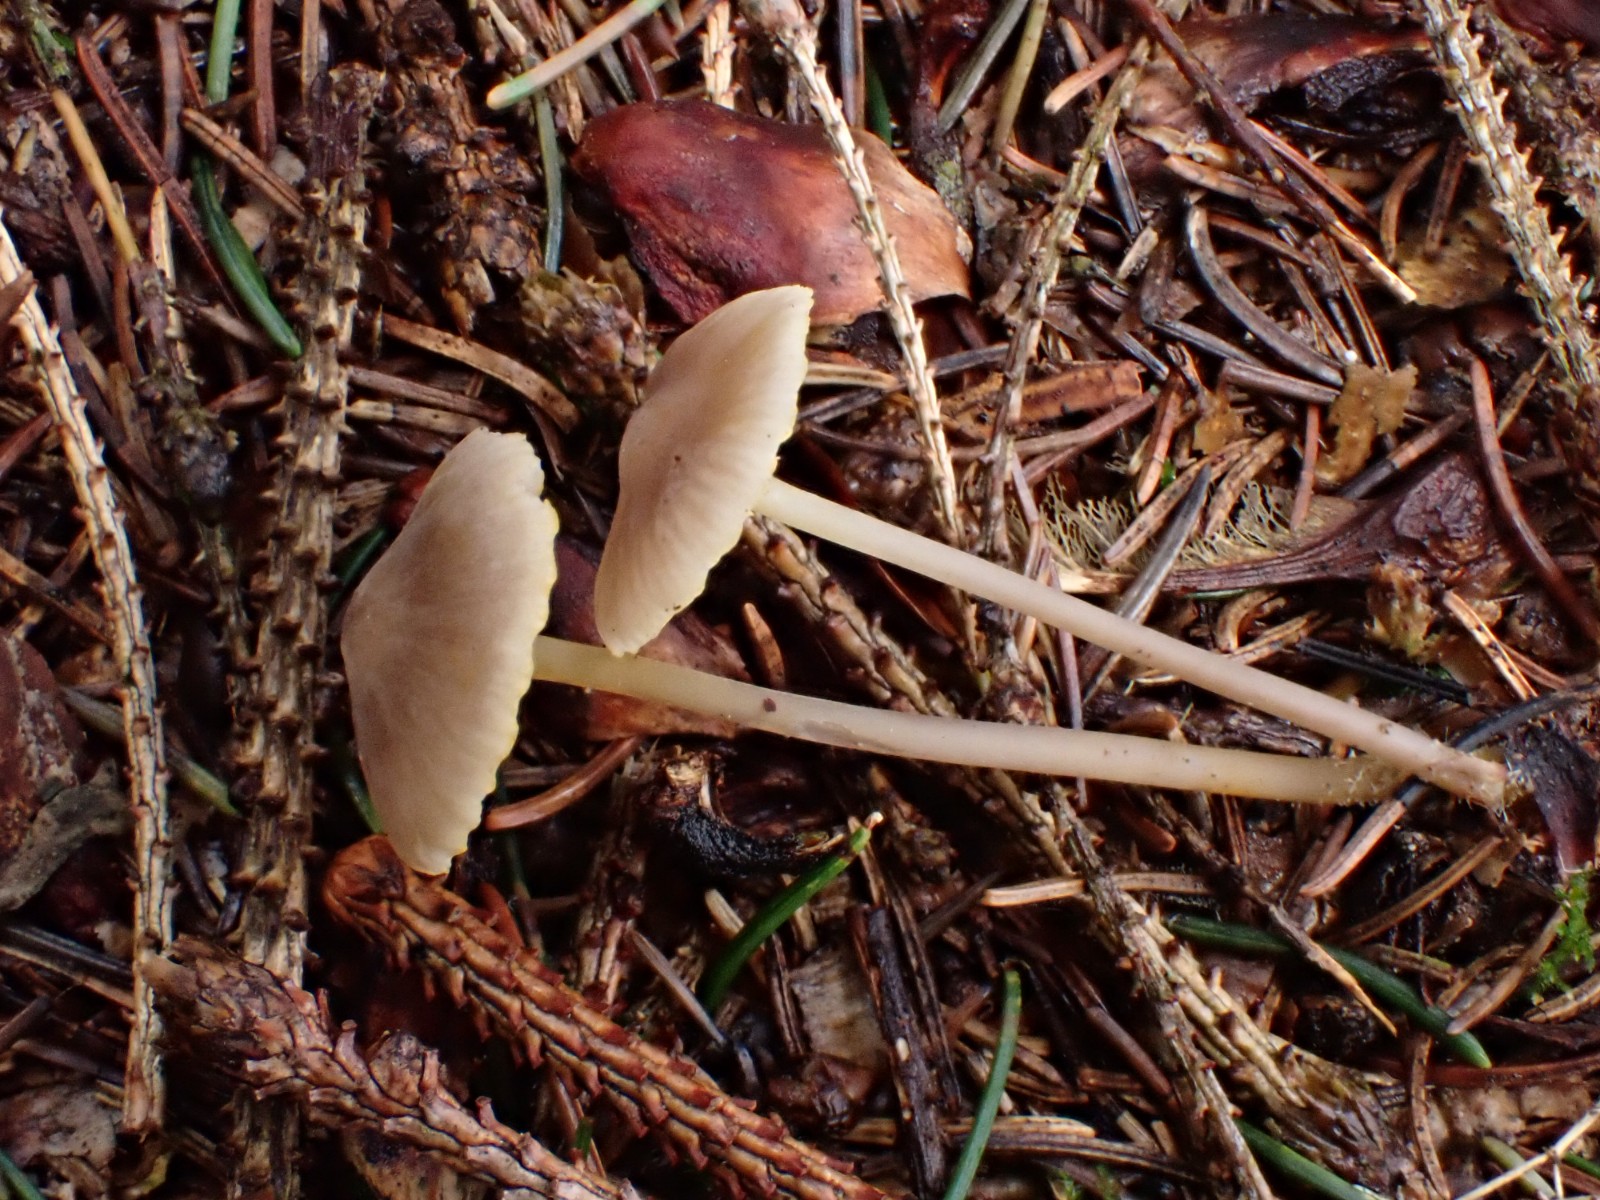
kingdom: Fungi
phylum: Basidiomycota
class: Agaricomycetes
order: Agaricales
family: Mycenaceae
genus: Mycena
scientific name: Mycena aurantiomarginata
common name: orangeægget huesvamp
